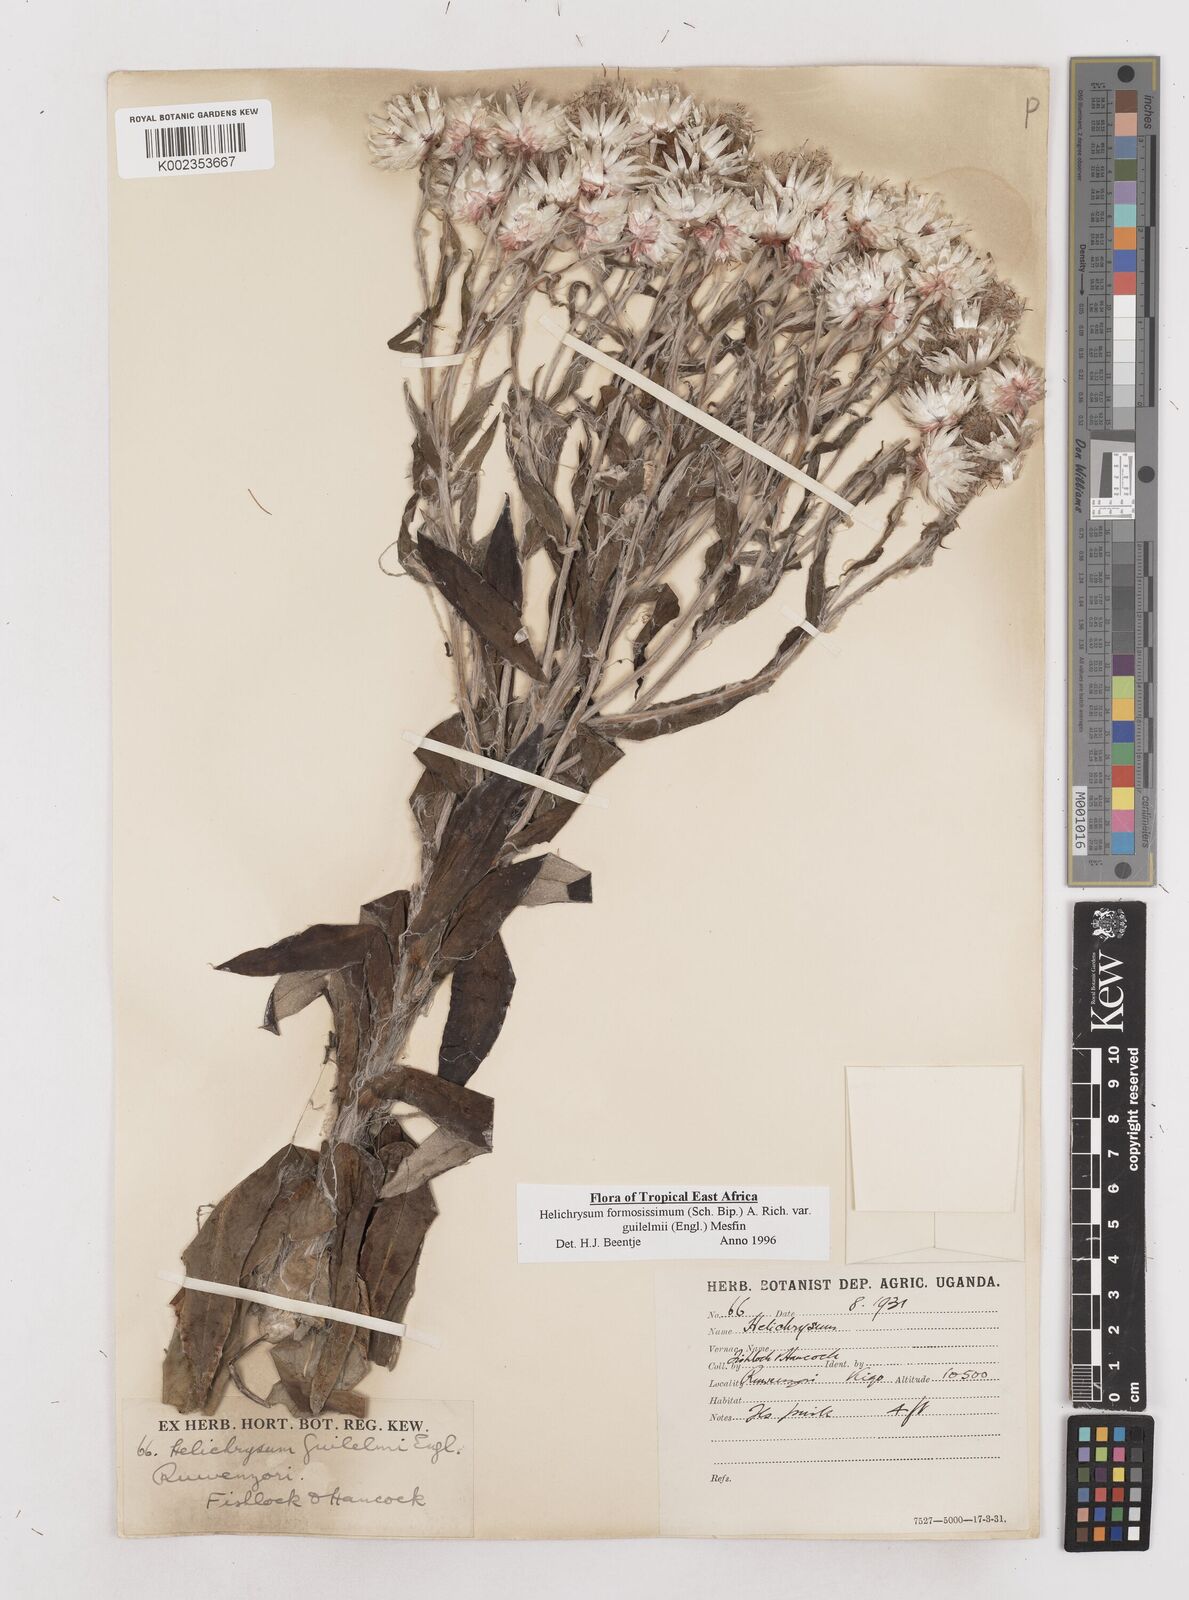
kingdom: Plantae
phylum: Tracheophyta
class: Magnoliopsida
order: Asterales
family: Asteraceae
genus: Helichrysum
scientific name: Helichrysum formosissimum
